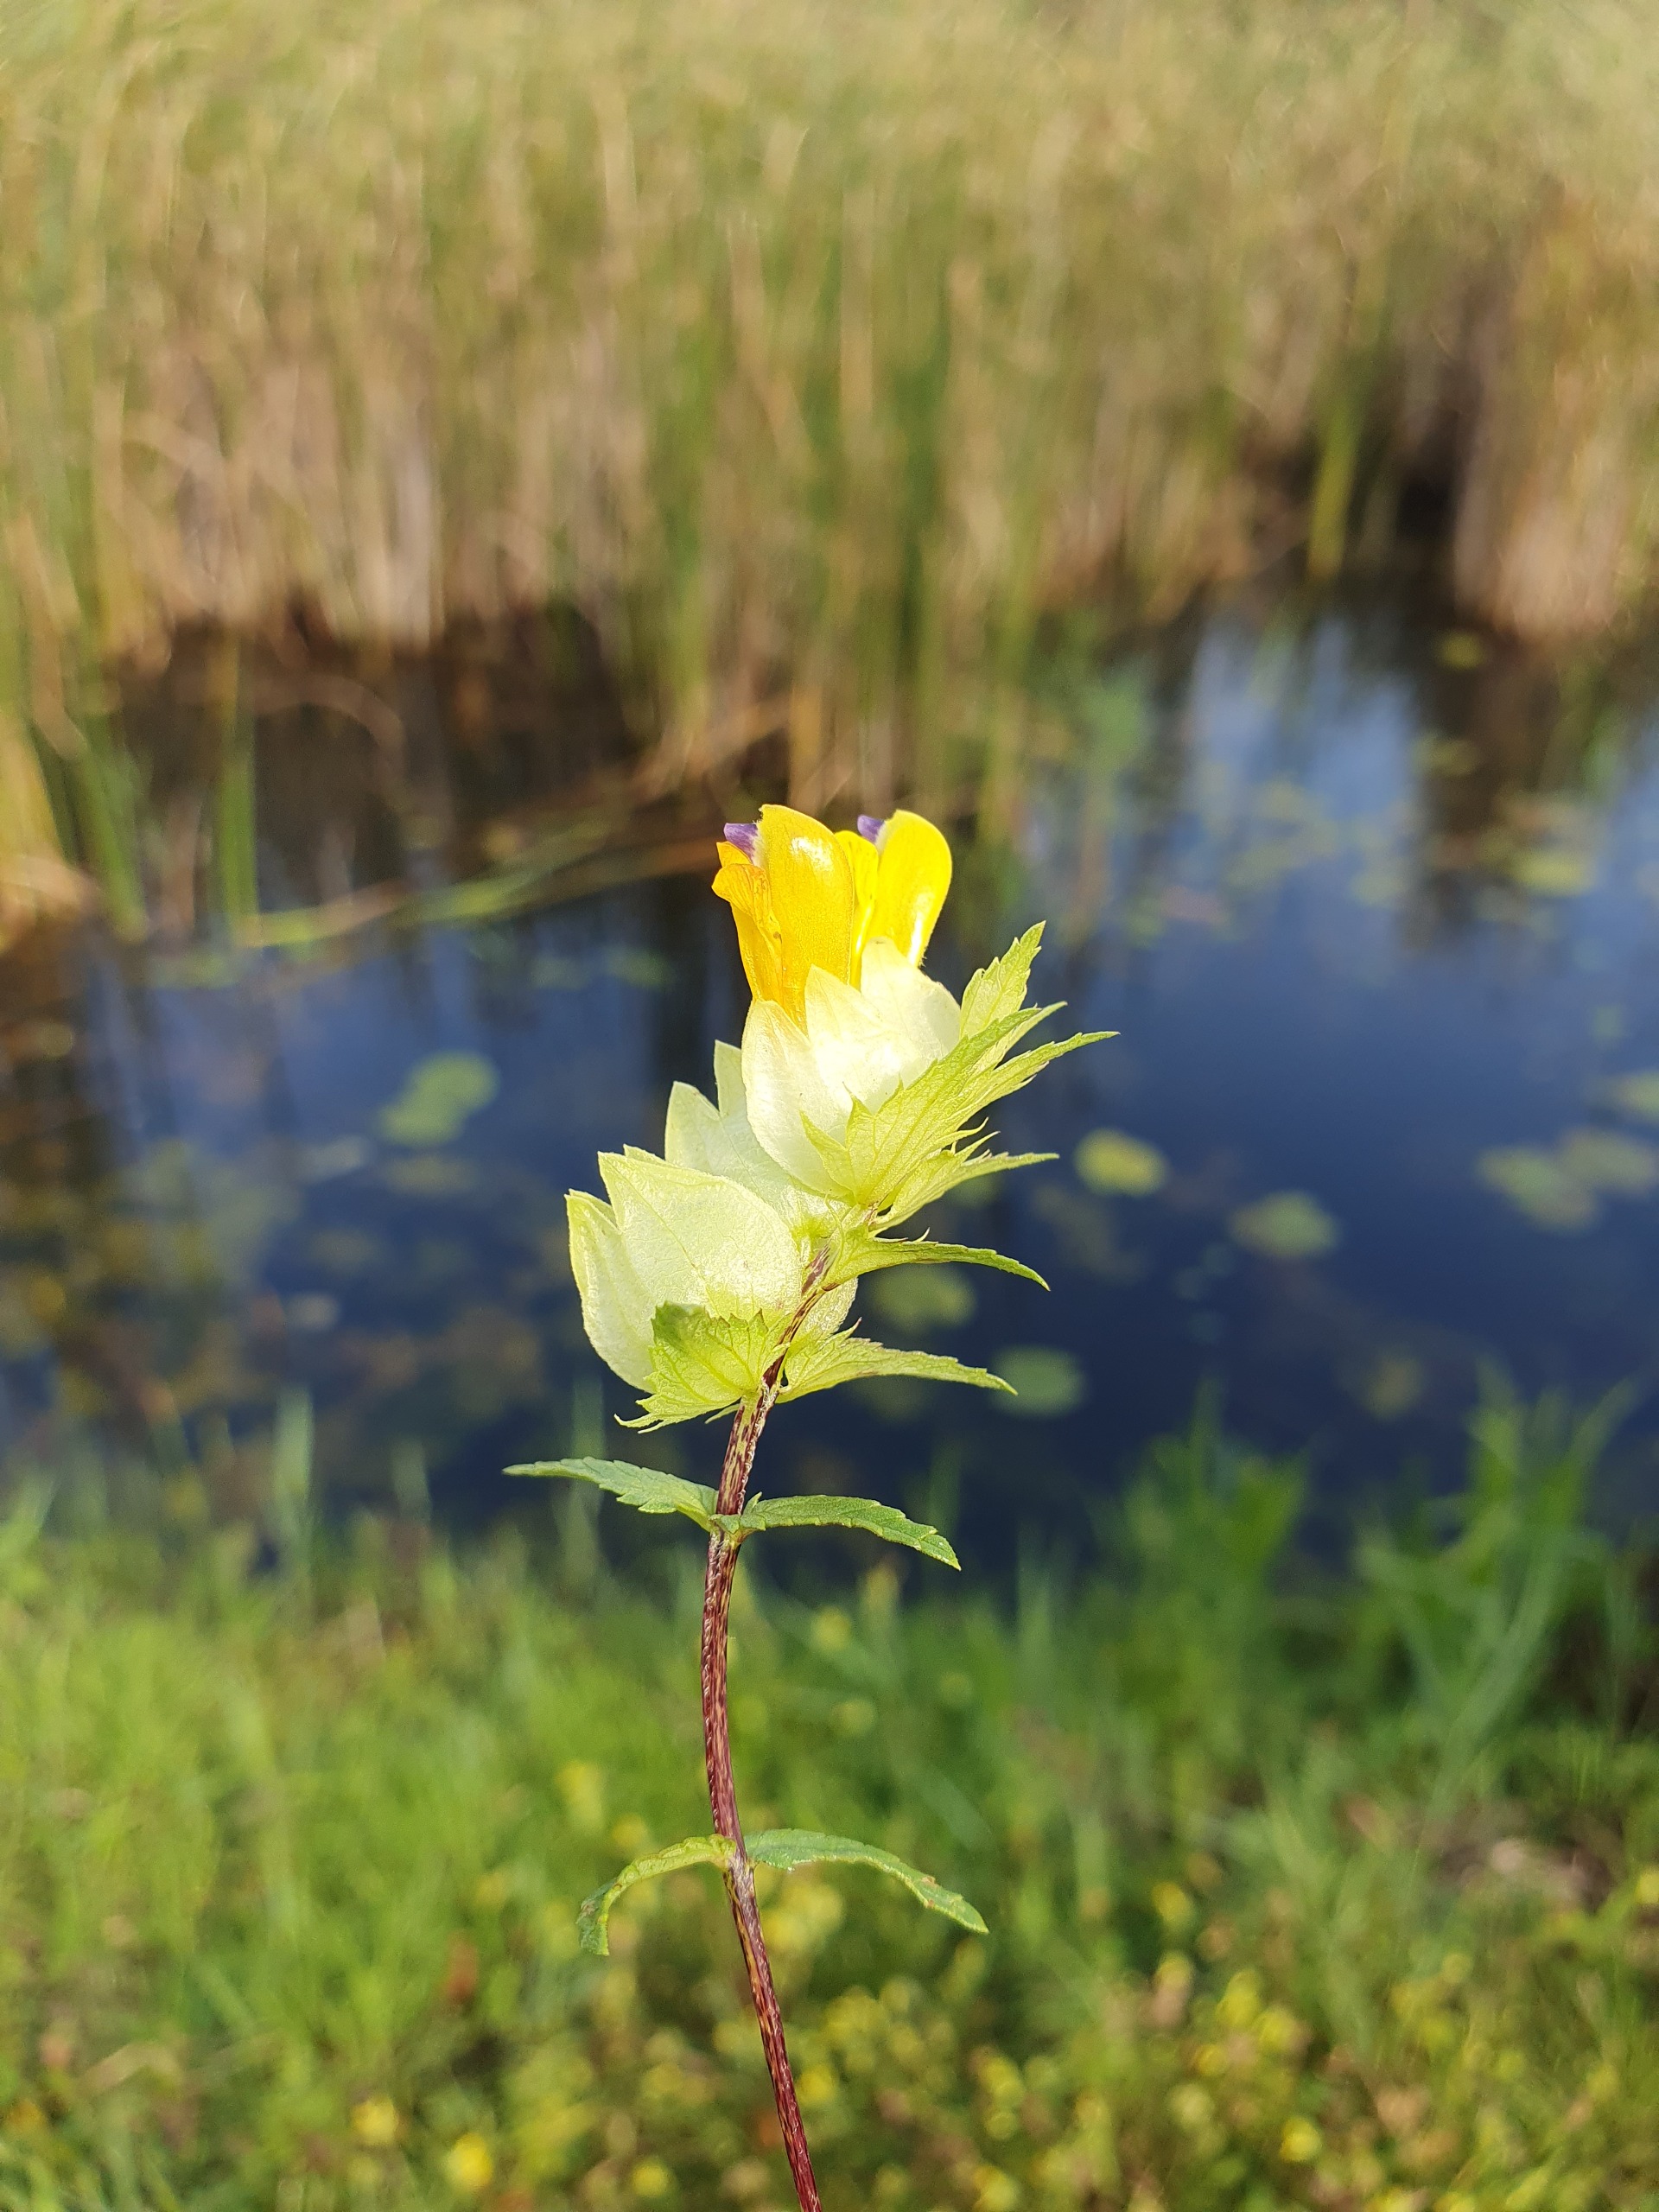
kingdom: Plantae
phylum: Tracheophyta
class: Magnoliopsida
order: Lamiales
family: Orobanchaceae
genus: Rhinanthus
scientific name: Rhinanthus
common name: Stor skjaller
